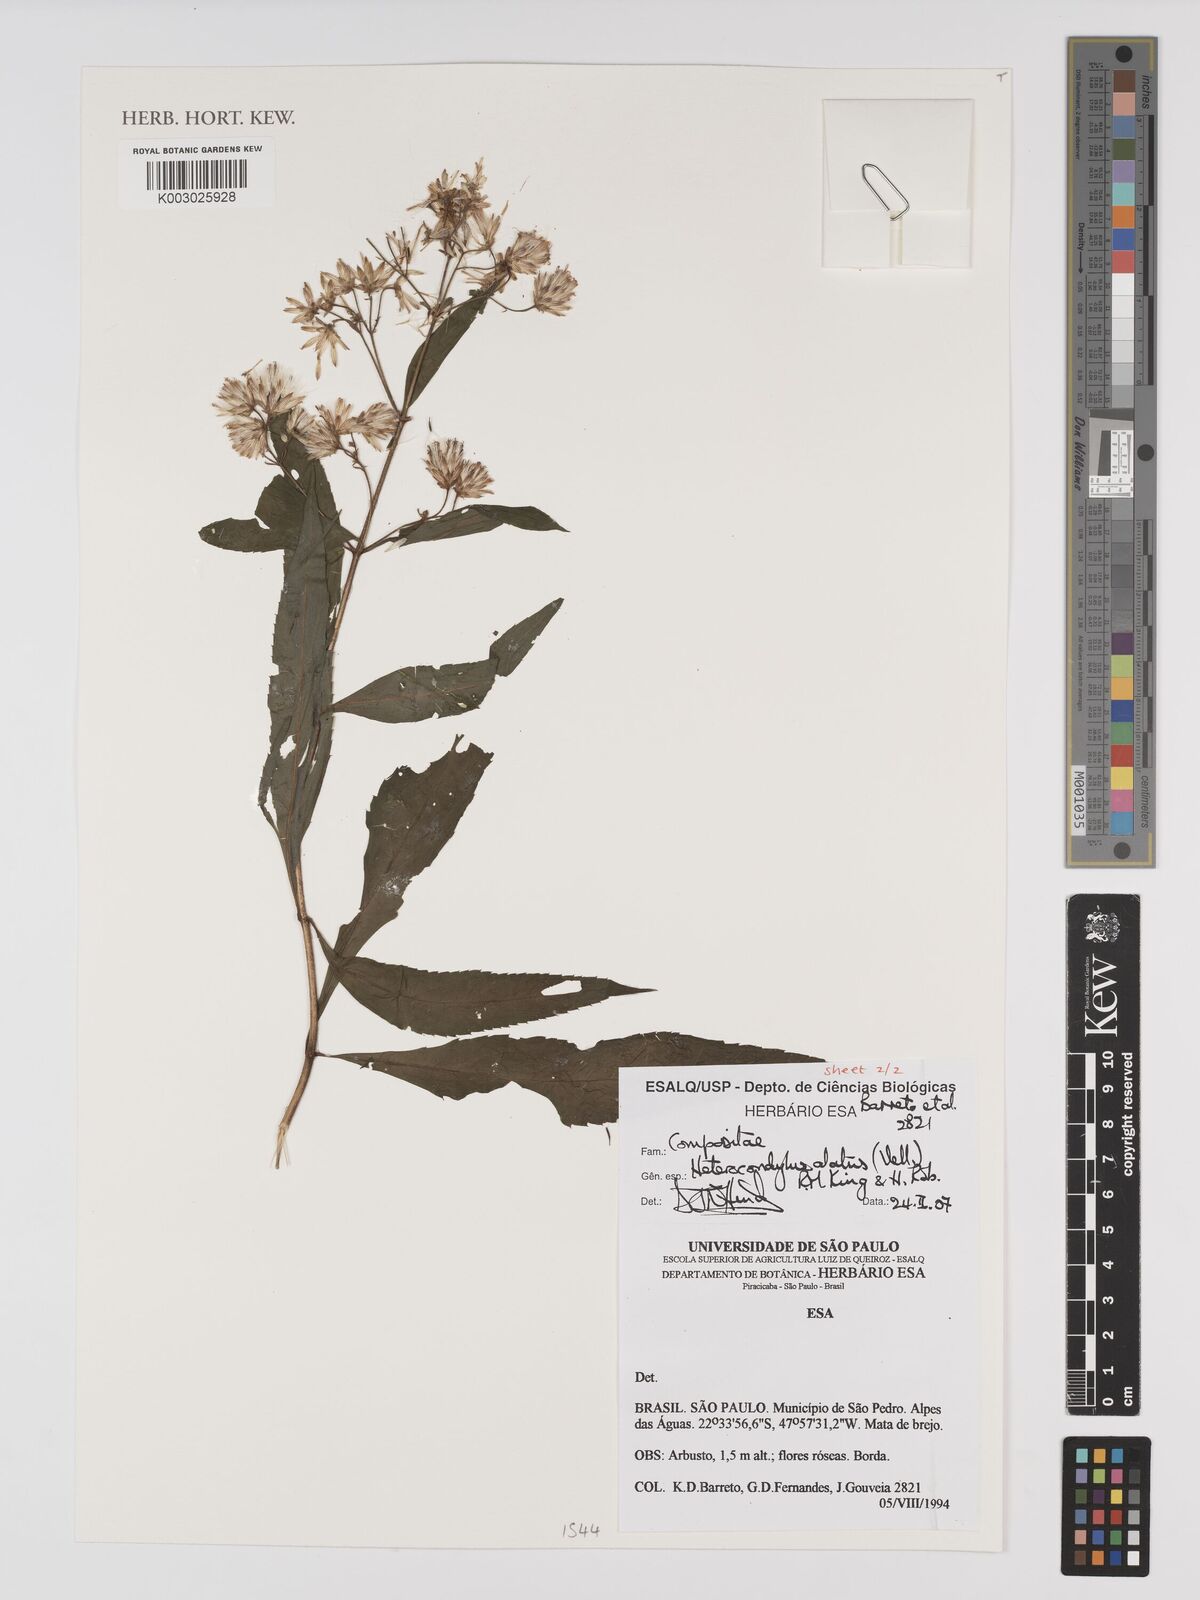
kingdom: Plantae
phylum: Tracheophyta
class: Magnoliopsida
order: Asterales
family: Asteraceae
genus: Heterocondylus
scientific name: Heterocondylus alatus
